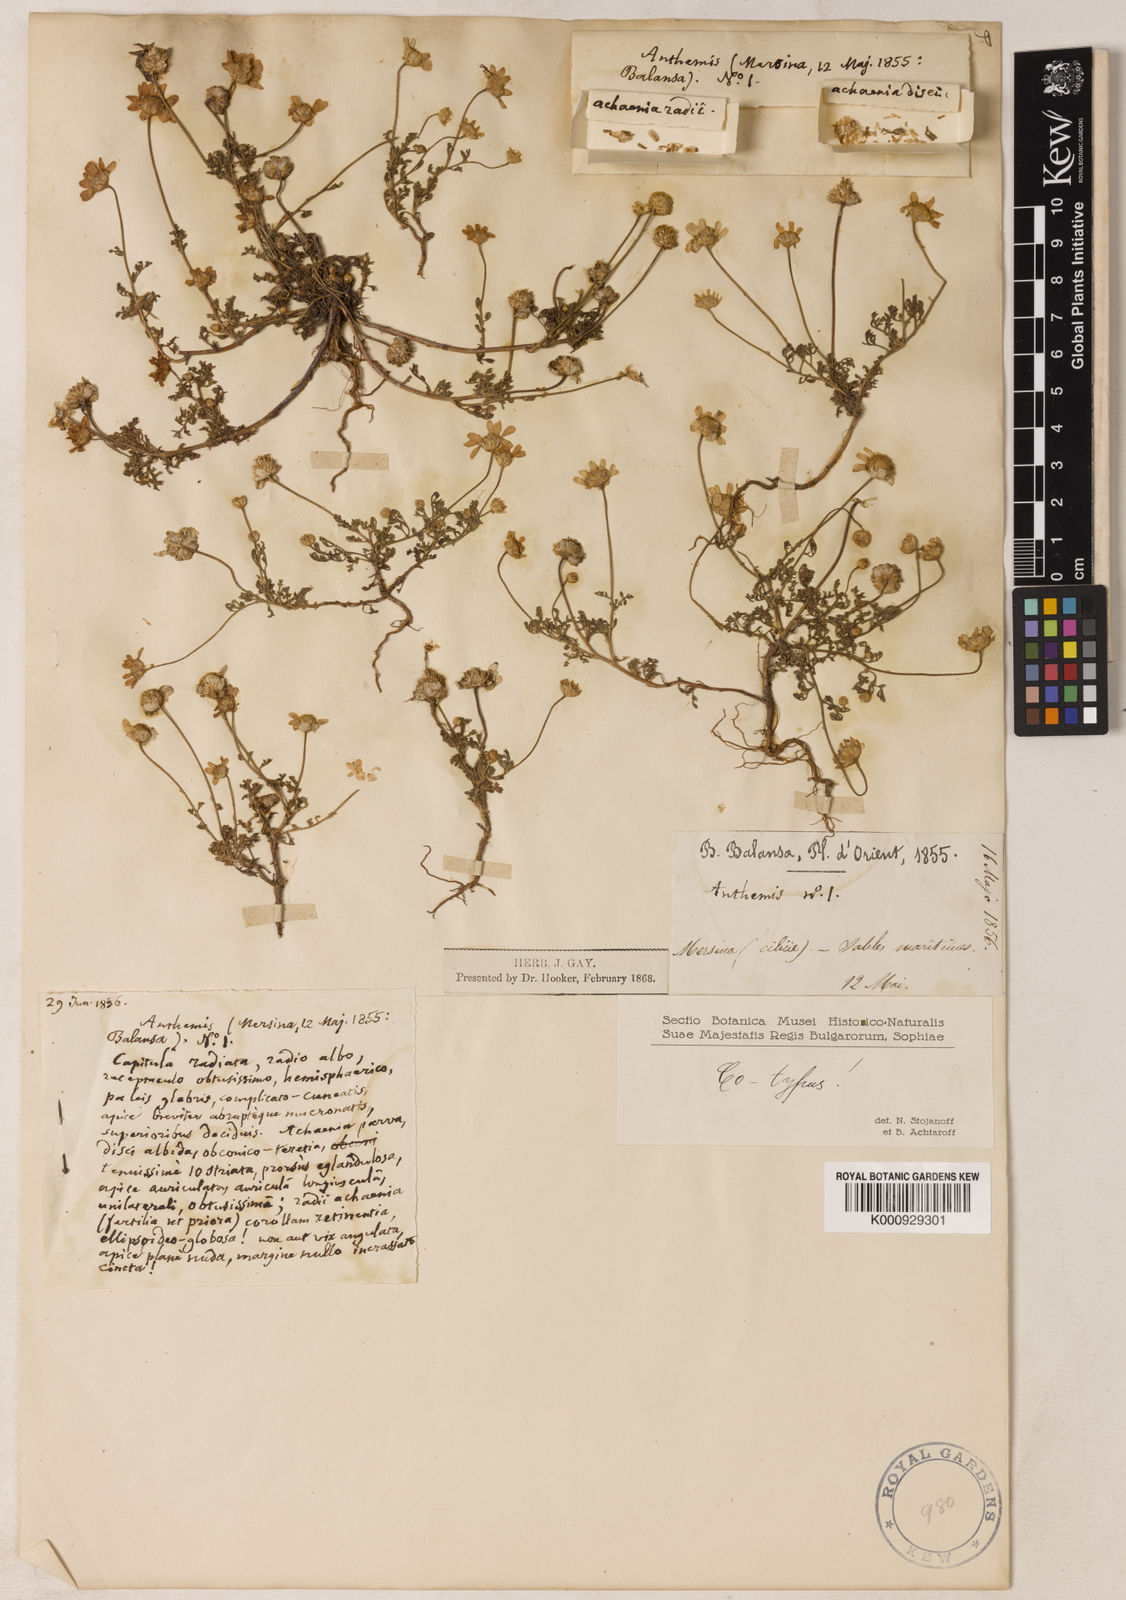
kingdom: Plantae
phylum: Tracheophyta
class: Magnoliopsida
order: Asterales
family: Asteraceae
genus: Anthemis
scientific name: Anthemis arenicola
